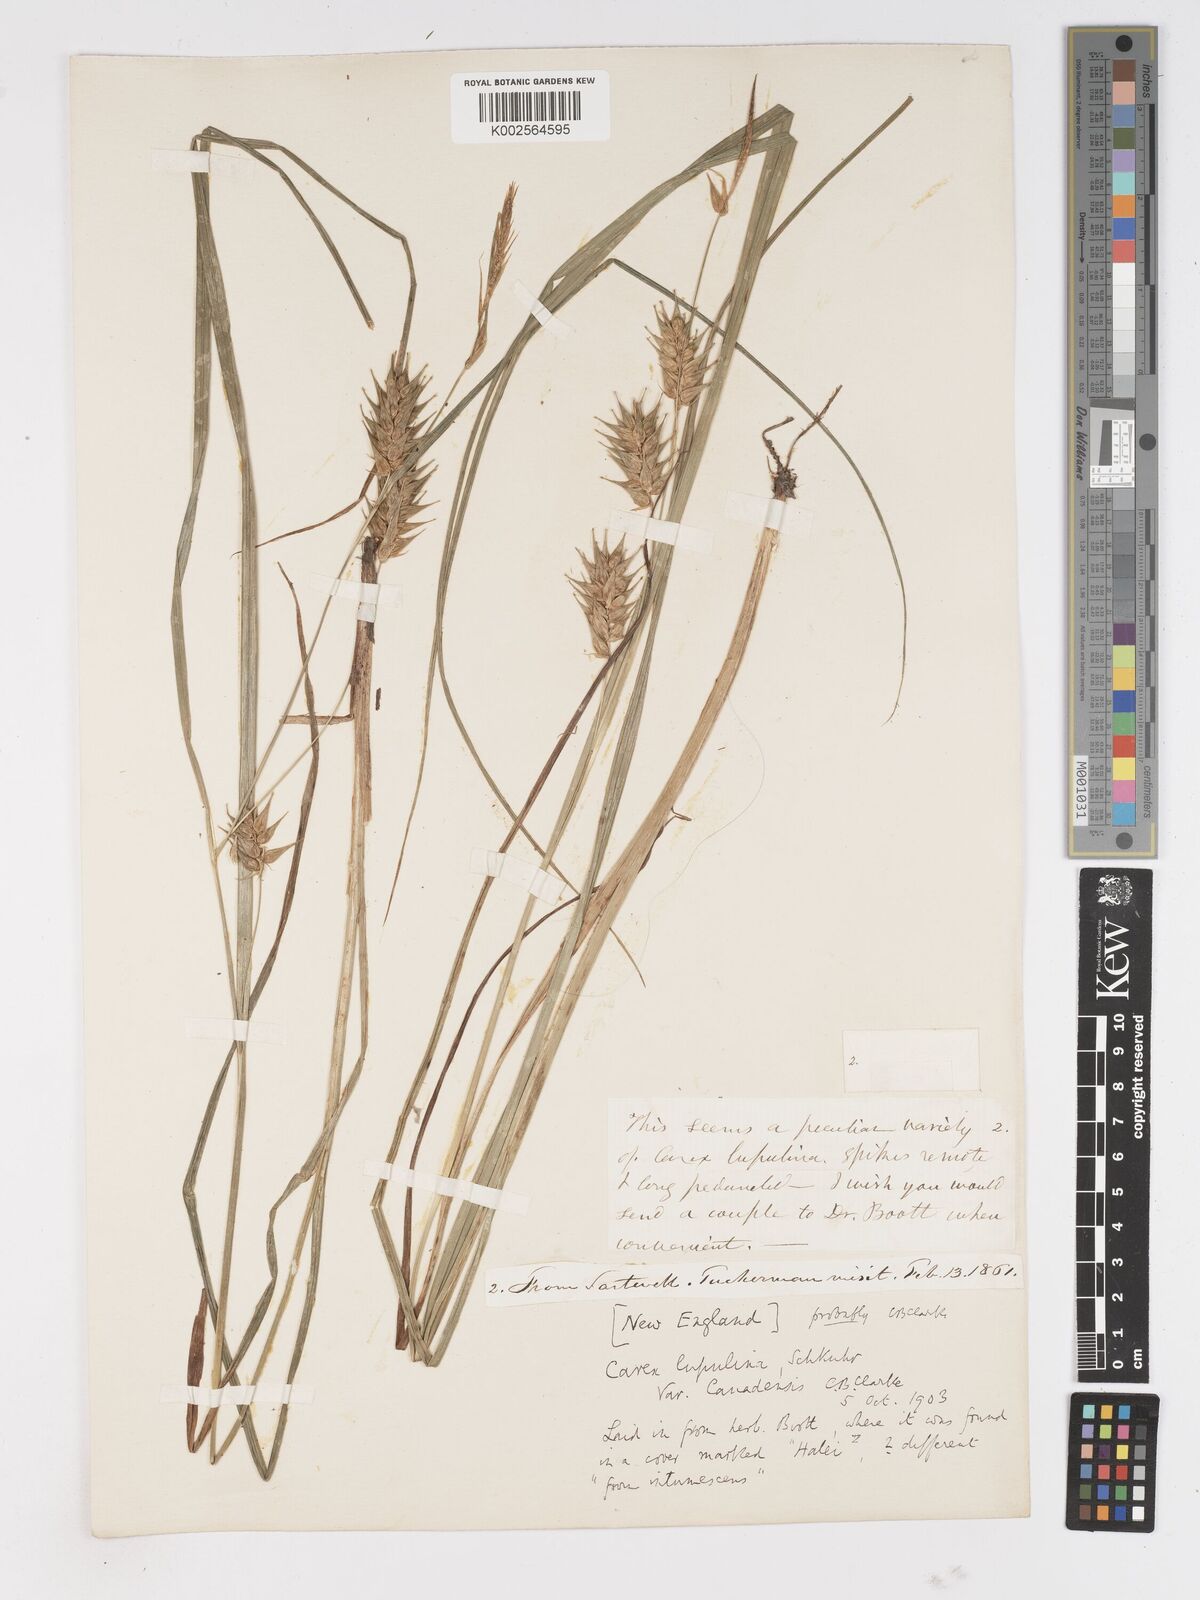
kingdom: Plantae
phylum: Tracheophyta
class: Liliopsida
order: Poales
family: Cyperaceae
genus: Carex
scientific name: Carex lupulina
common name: Hop sedge
